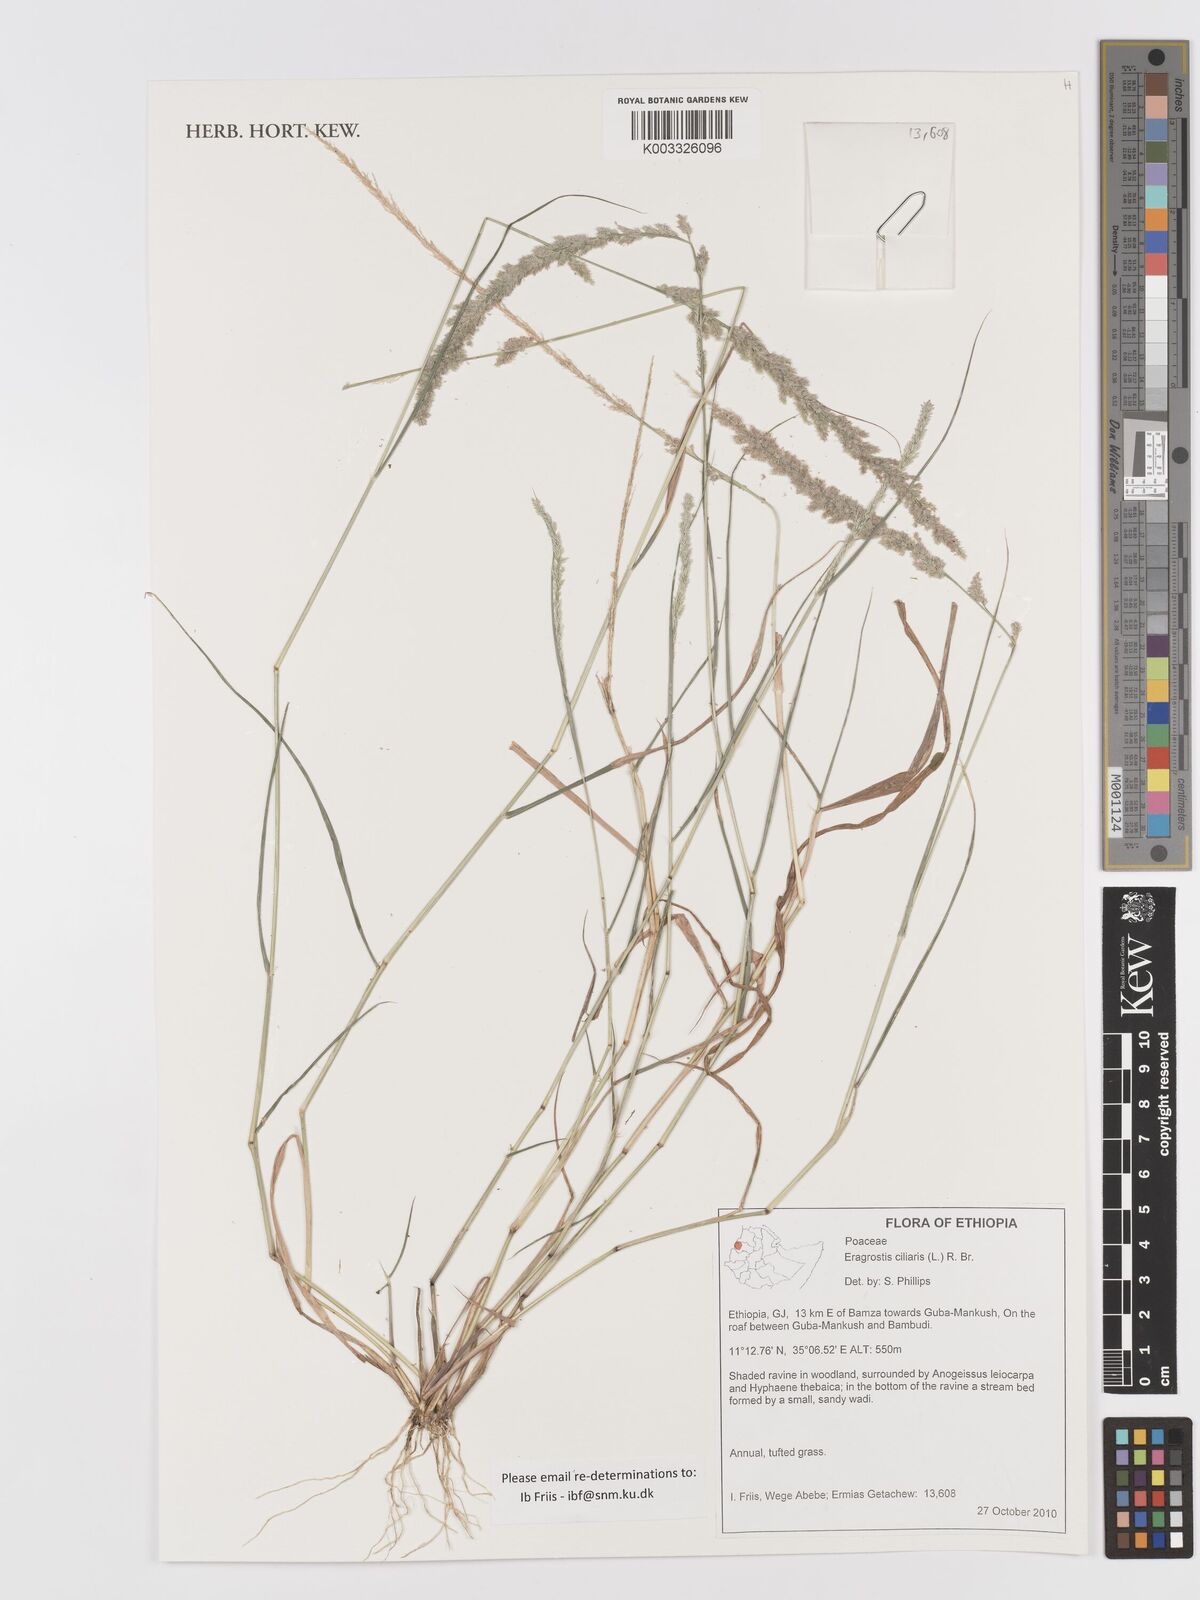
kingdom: Plantae
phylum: Tracheophyta
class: Liliopsida
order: Poales
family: Poaceae
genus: Eragrostis
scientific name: Eragrostis ciliaris
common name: Gophertail lovegrass
